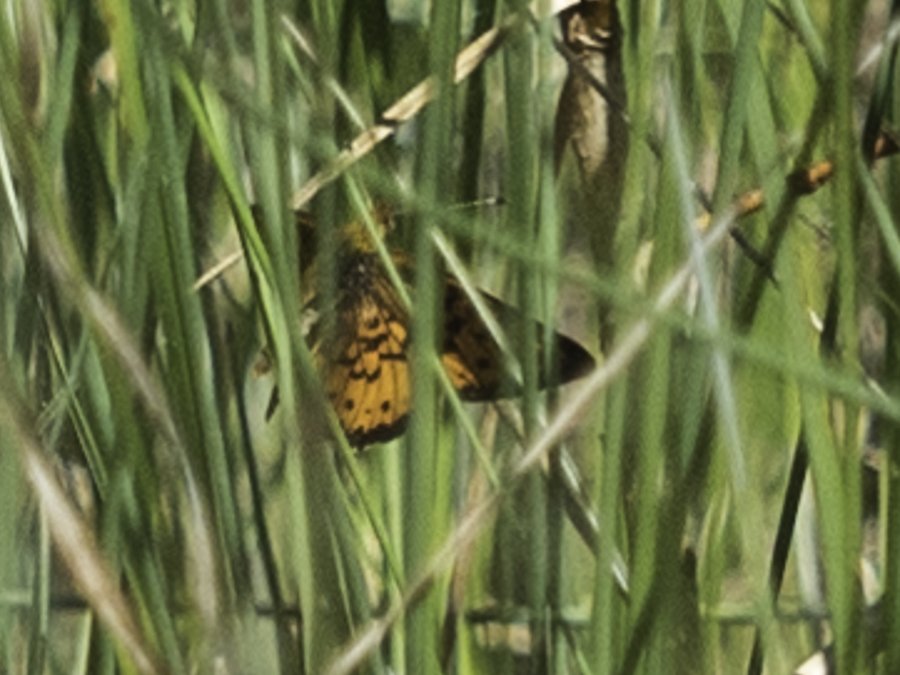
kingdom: Animalia
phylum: Arthropoda
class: Insecta
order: Lepidoptera
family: Nymphalidae
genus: Boloria
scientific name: Boloria eunomia
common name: Bog Fritillary
